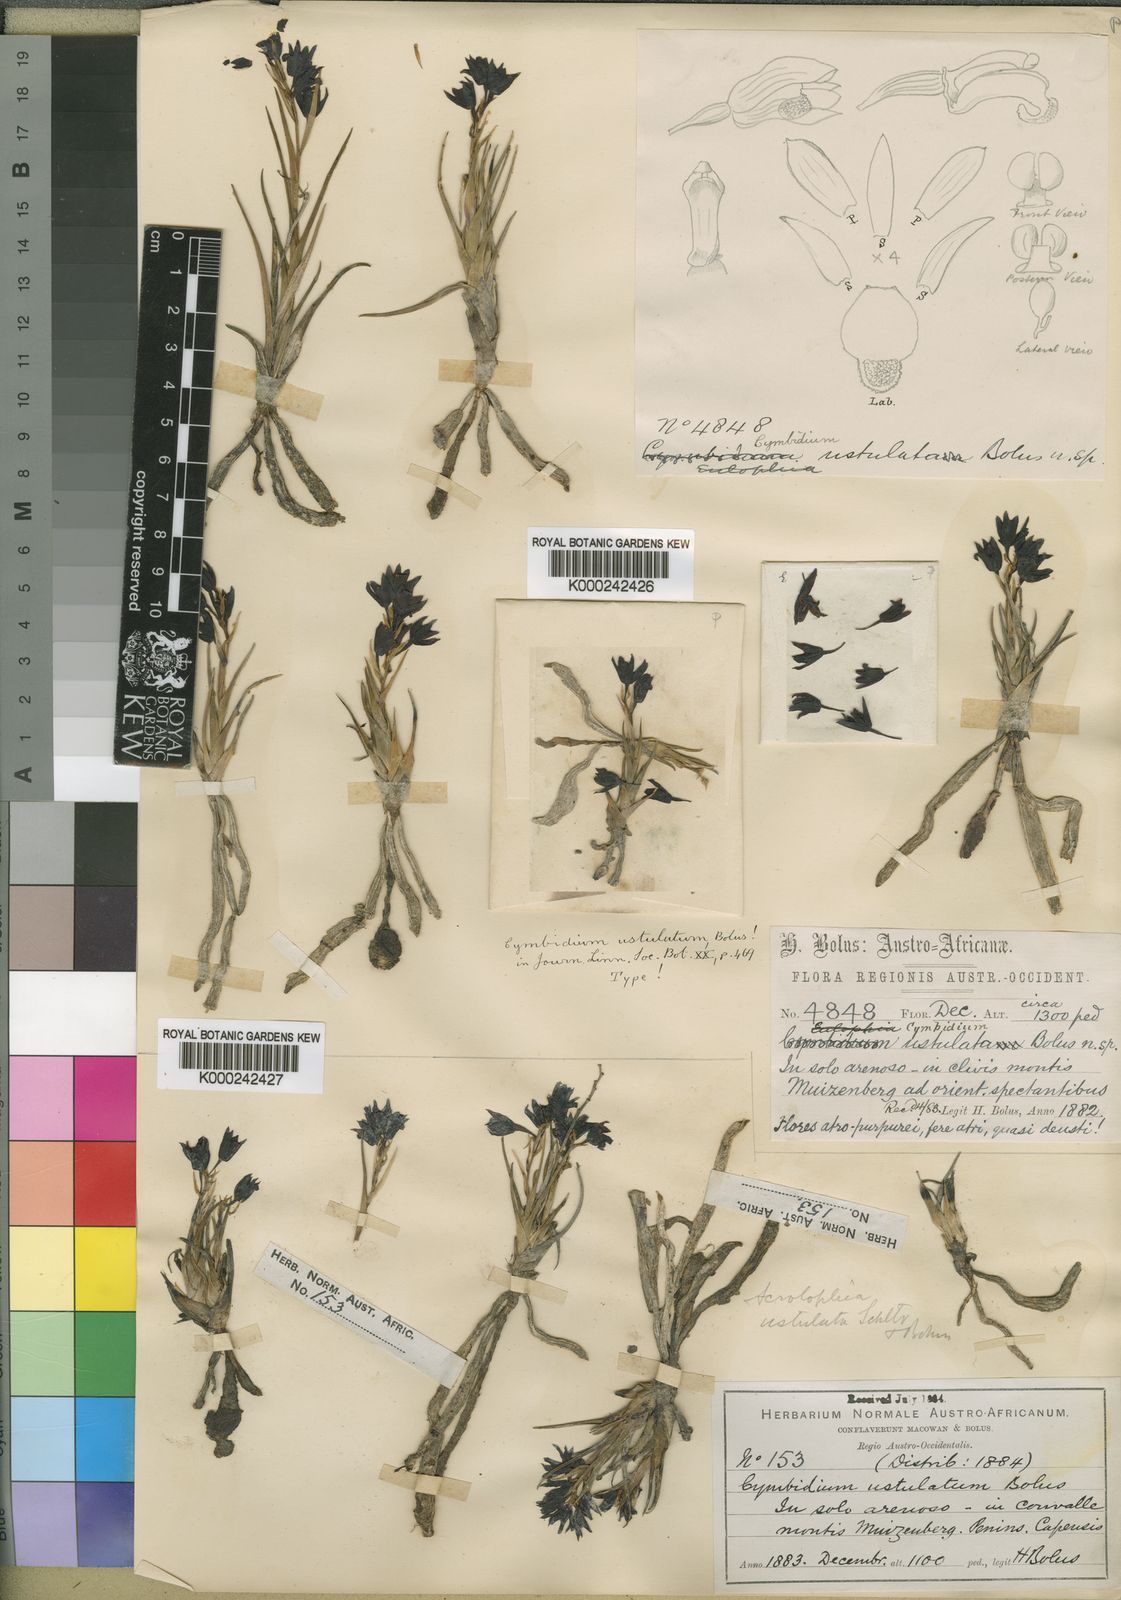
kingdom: Plantae
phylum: Tracheophyta
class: Liliopsida
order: Asparagales
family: Orchidaceae
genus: Eulophia
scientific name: Eulophia ustulata
